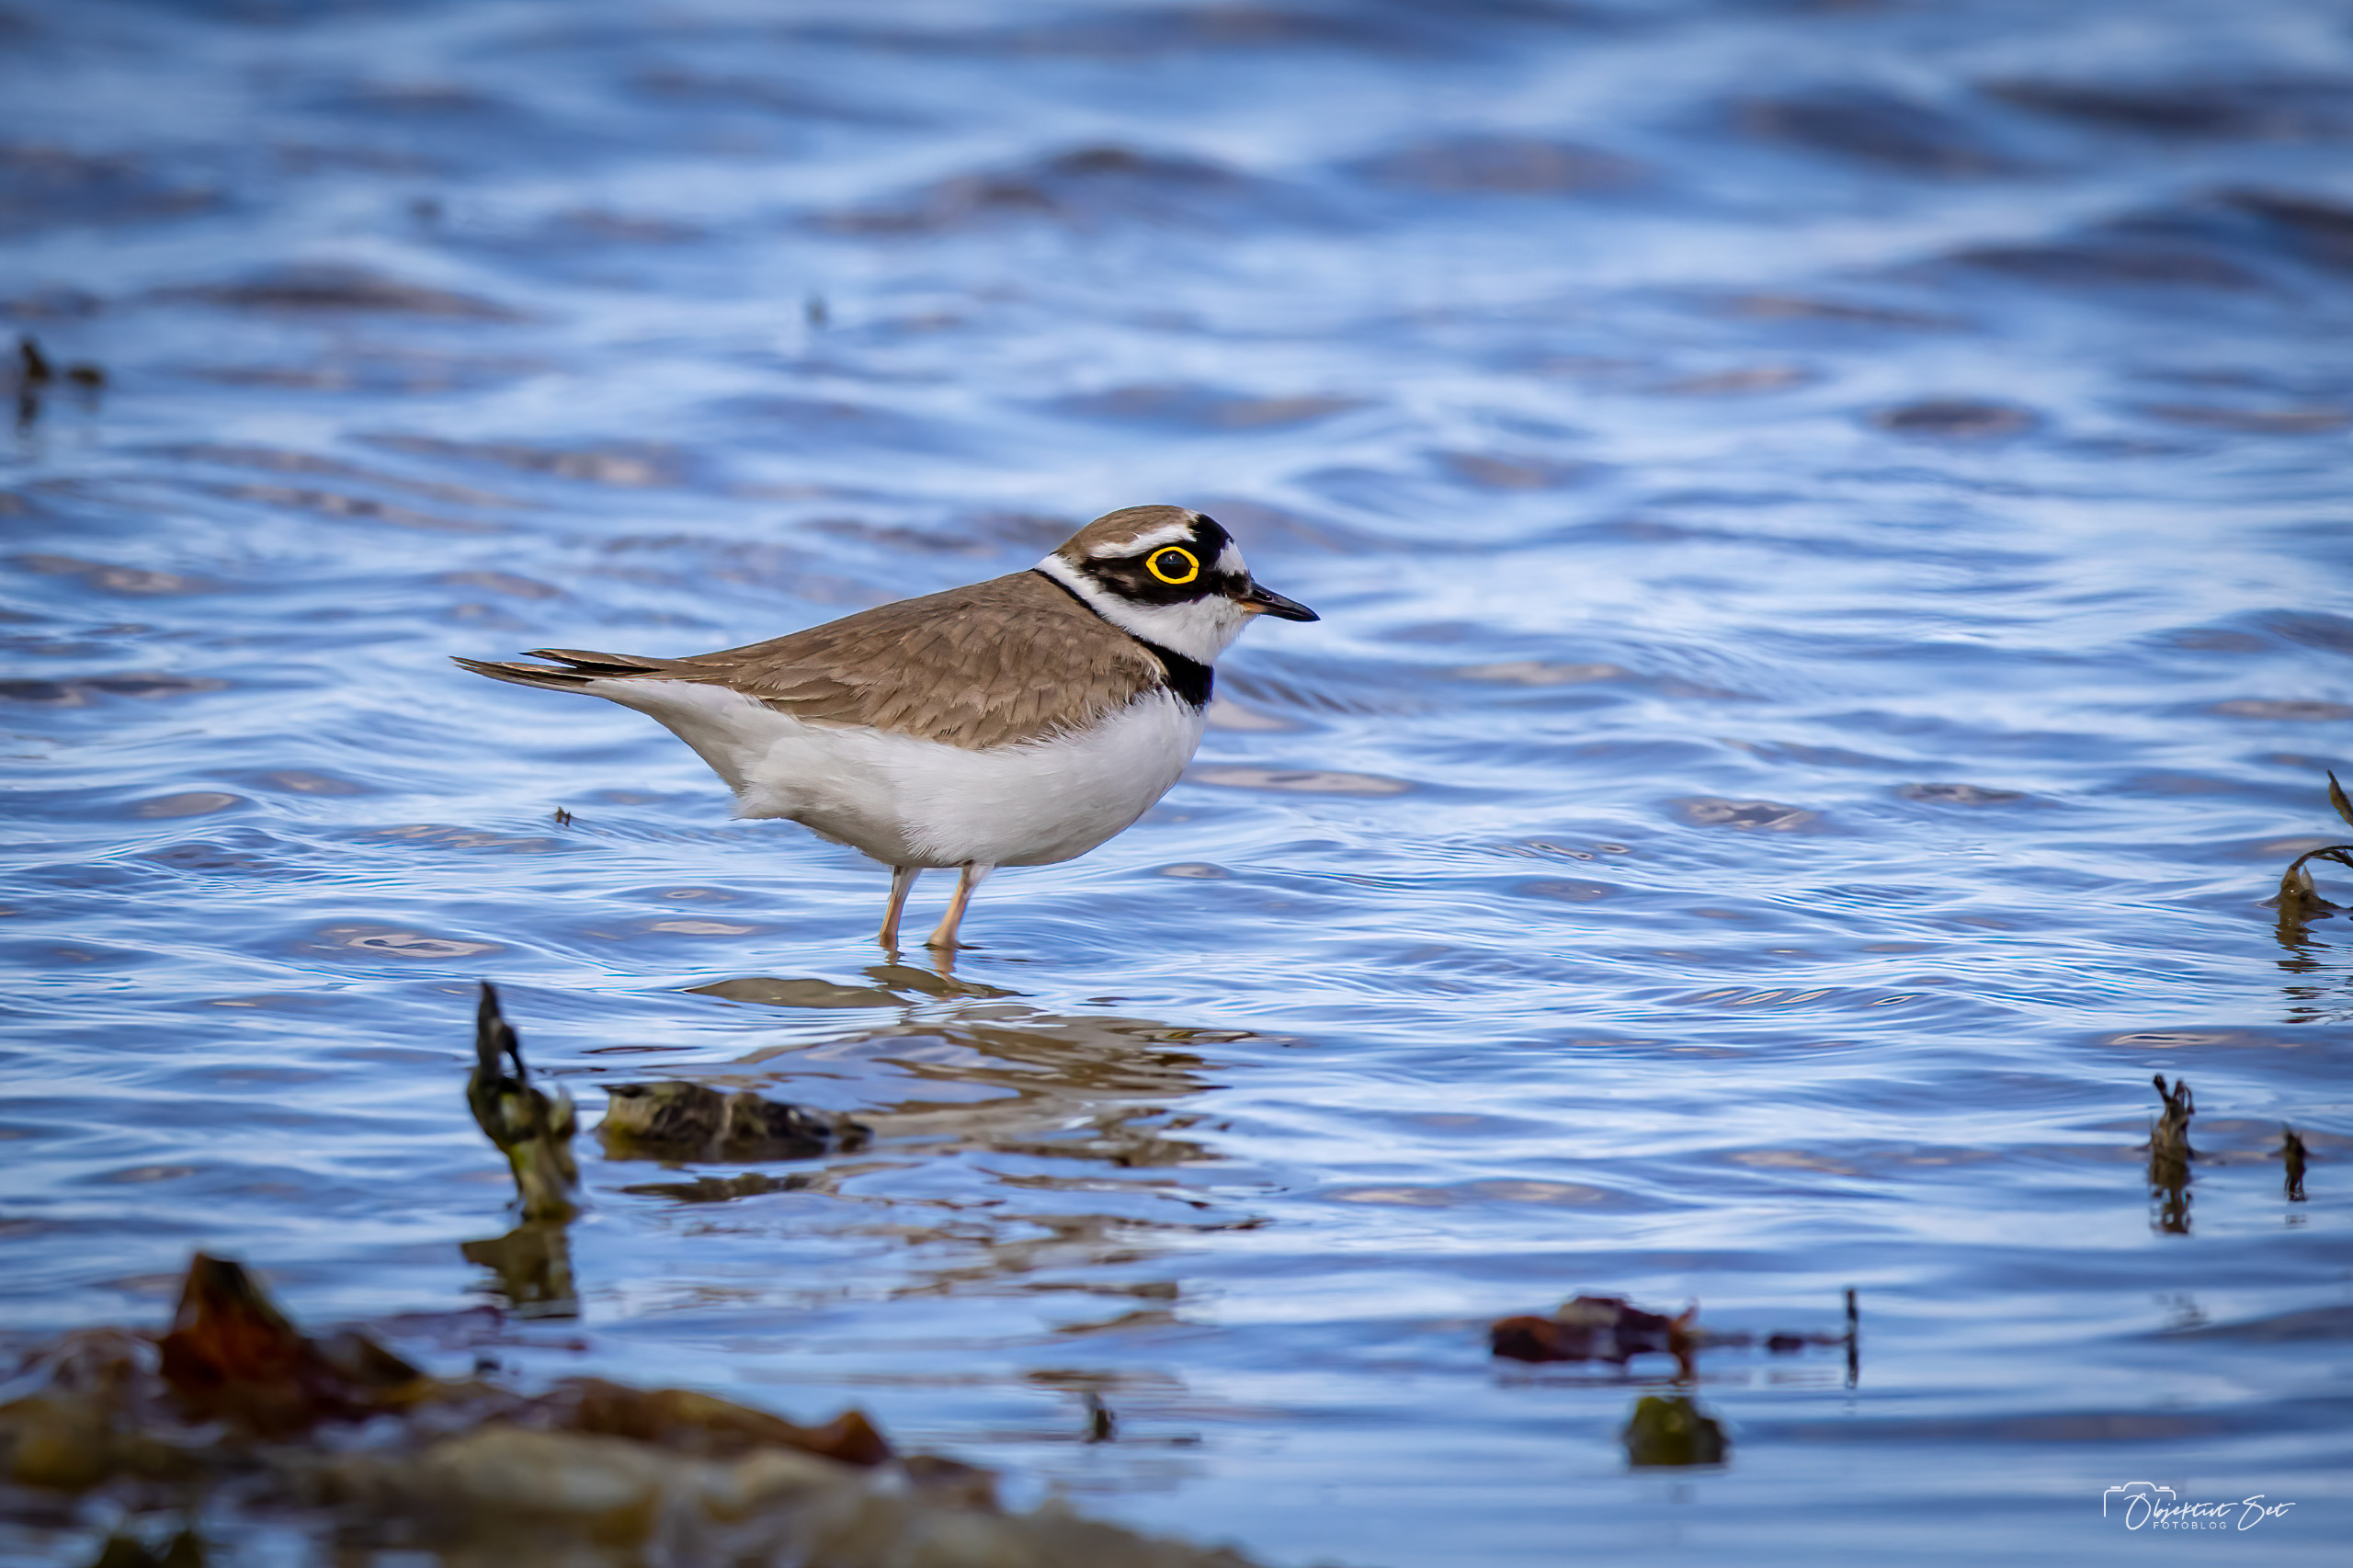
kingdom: Animalia
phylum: Chordata
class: Aves
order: Charadriiformes
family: Charadriidae
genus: Charadrius
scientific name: Charadrius dubius
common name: Lille præstekrave
